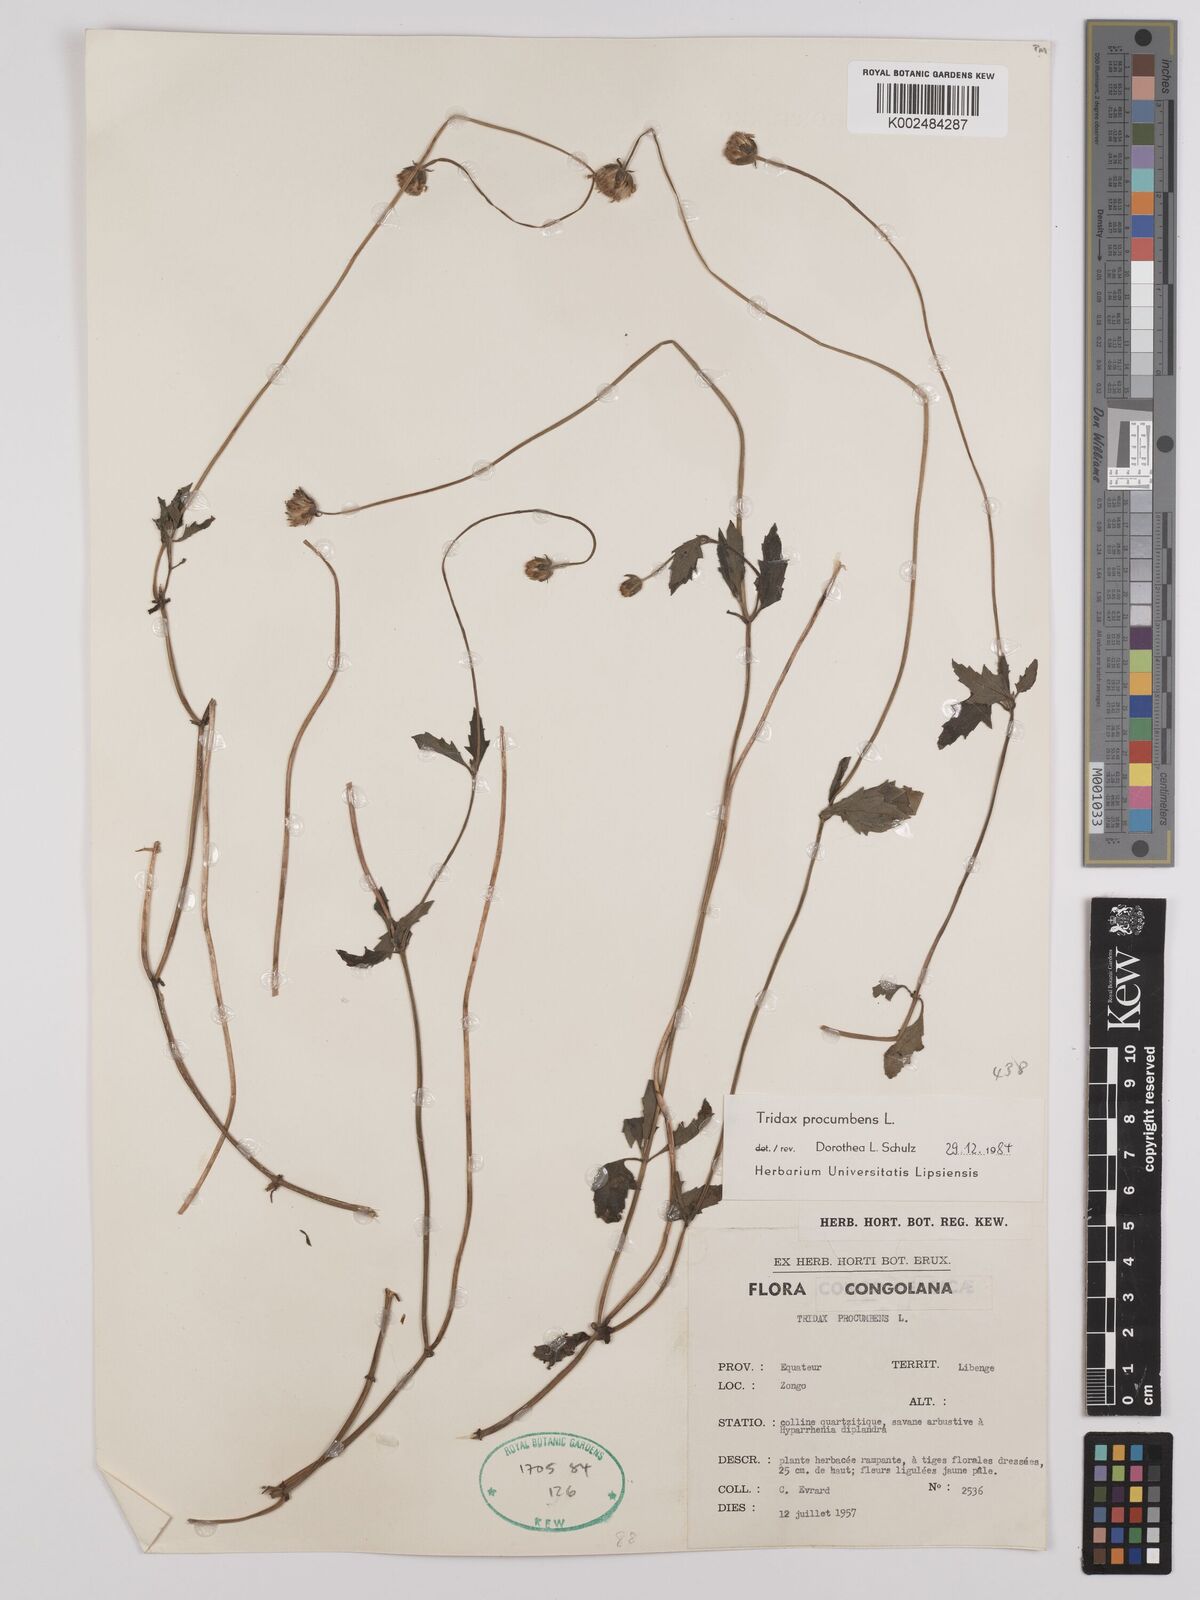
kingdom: Plantae
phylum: Tracheophyta
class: Magnoliopsida
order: Asterales
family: Asteraceae
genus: Tridax
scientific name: Tridax procumbens
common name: Coatbuttons
